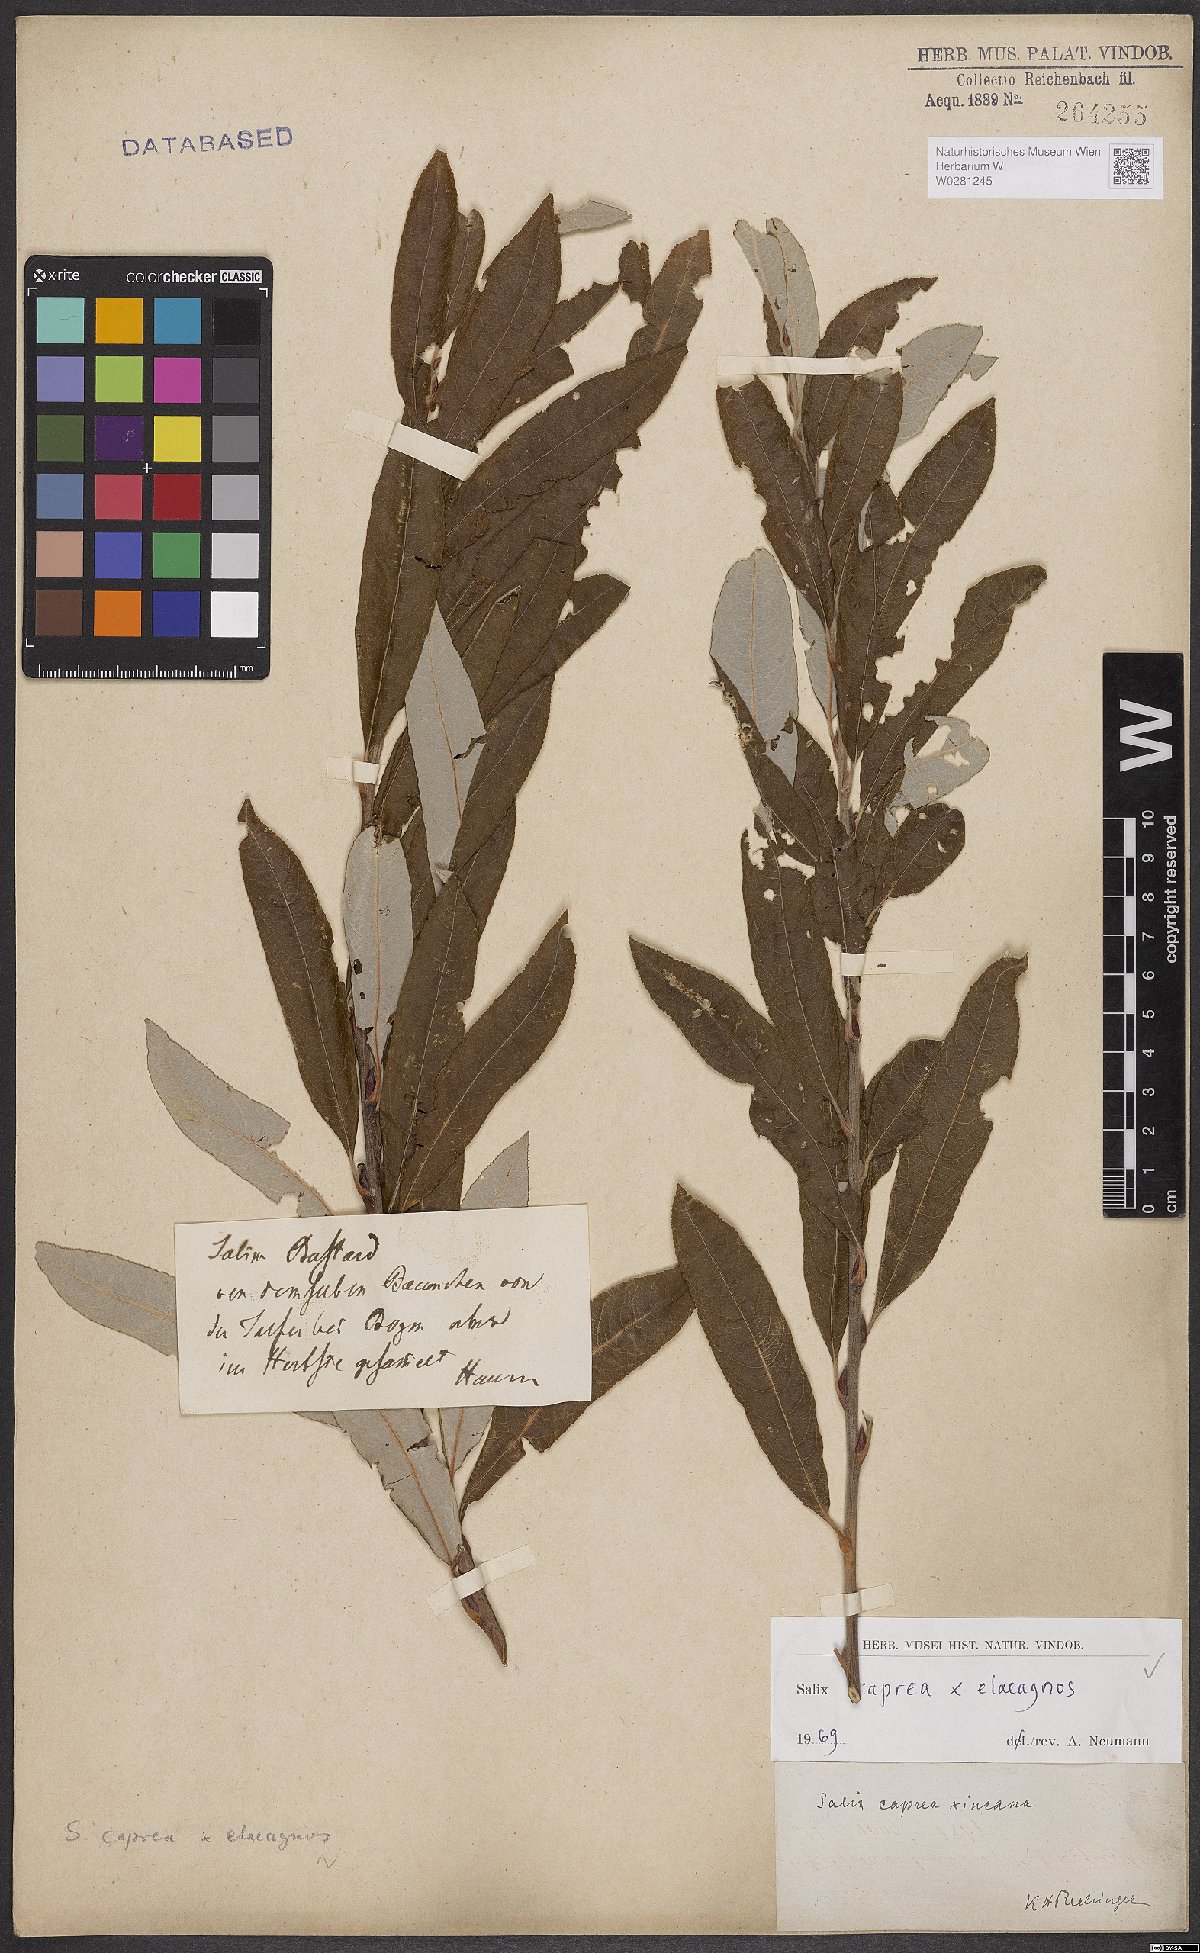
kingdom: Plantae
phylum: Tracheophyta
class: Magnoliopsida
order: Malpighiales
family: Salicaceae
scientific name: Salicaceae
